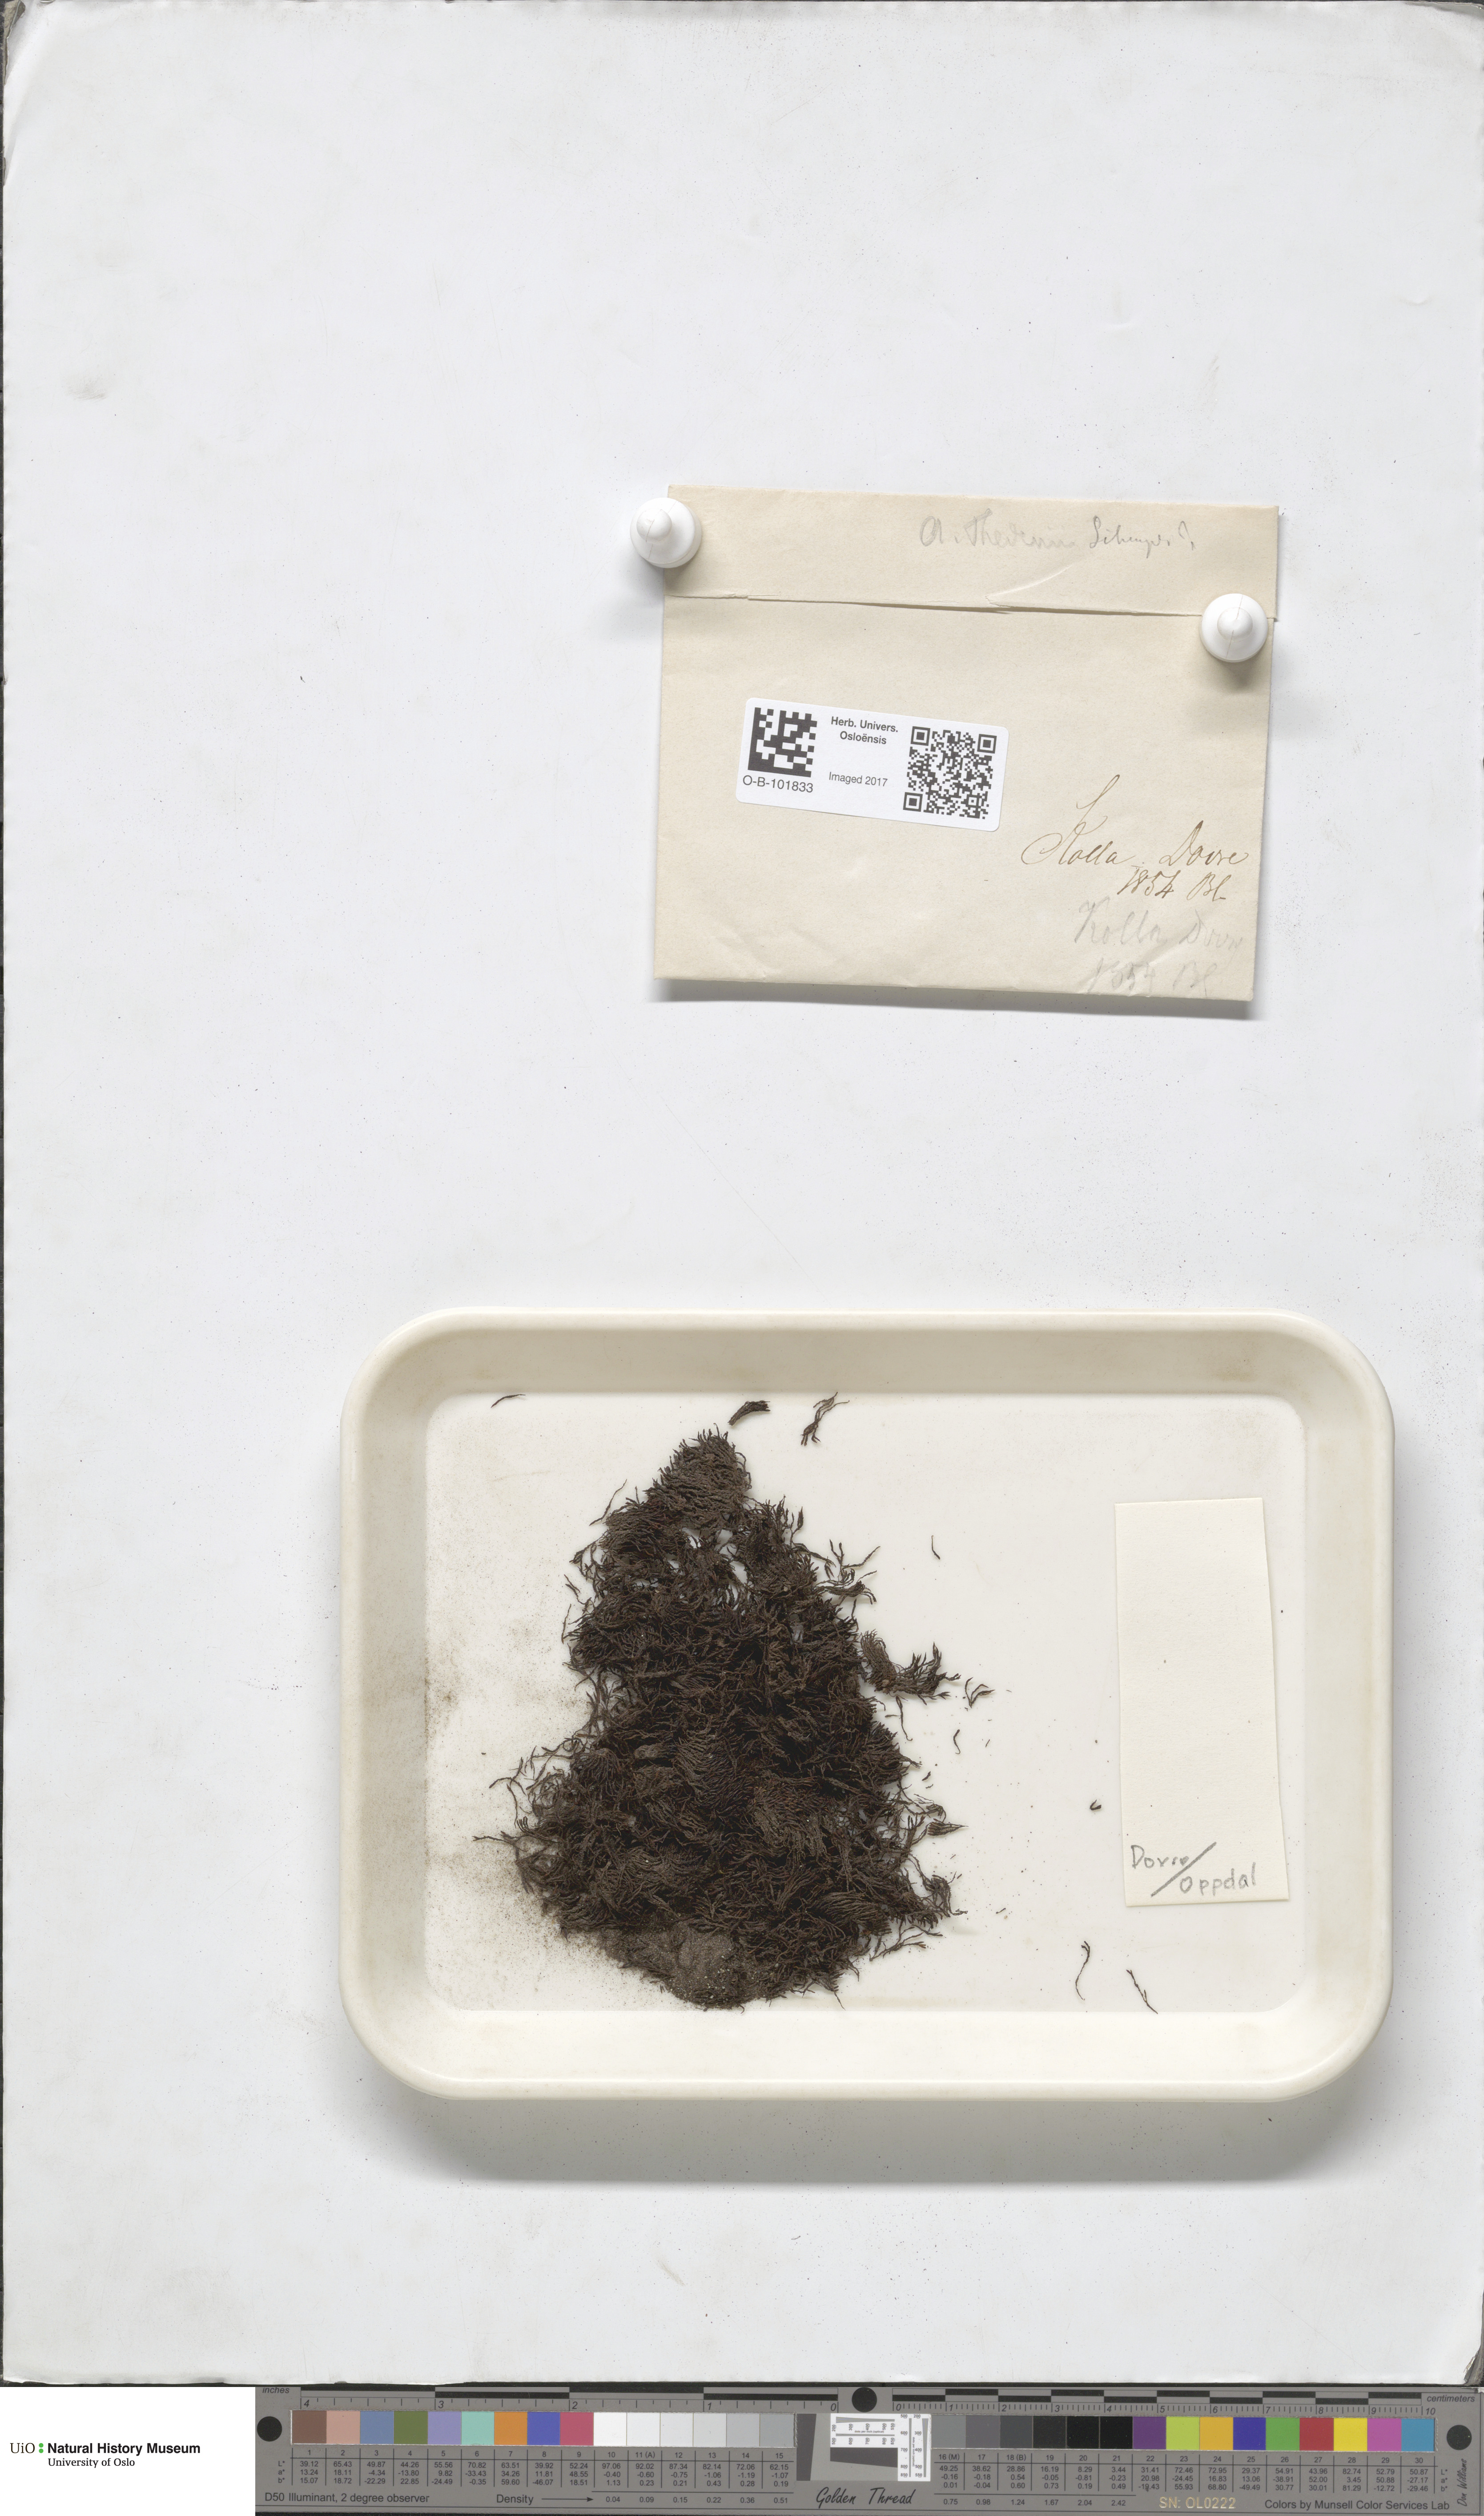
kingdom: Plantae
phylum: Bryophyta
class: Andreaeopsida
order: Andreaeales
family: Andreaeaceae
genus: Andreaea
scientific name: Andreaea hookeri
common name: Alpine rock-moss
